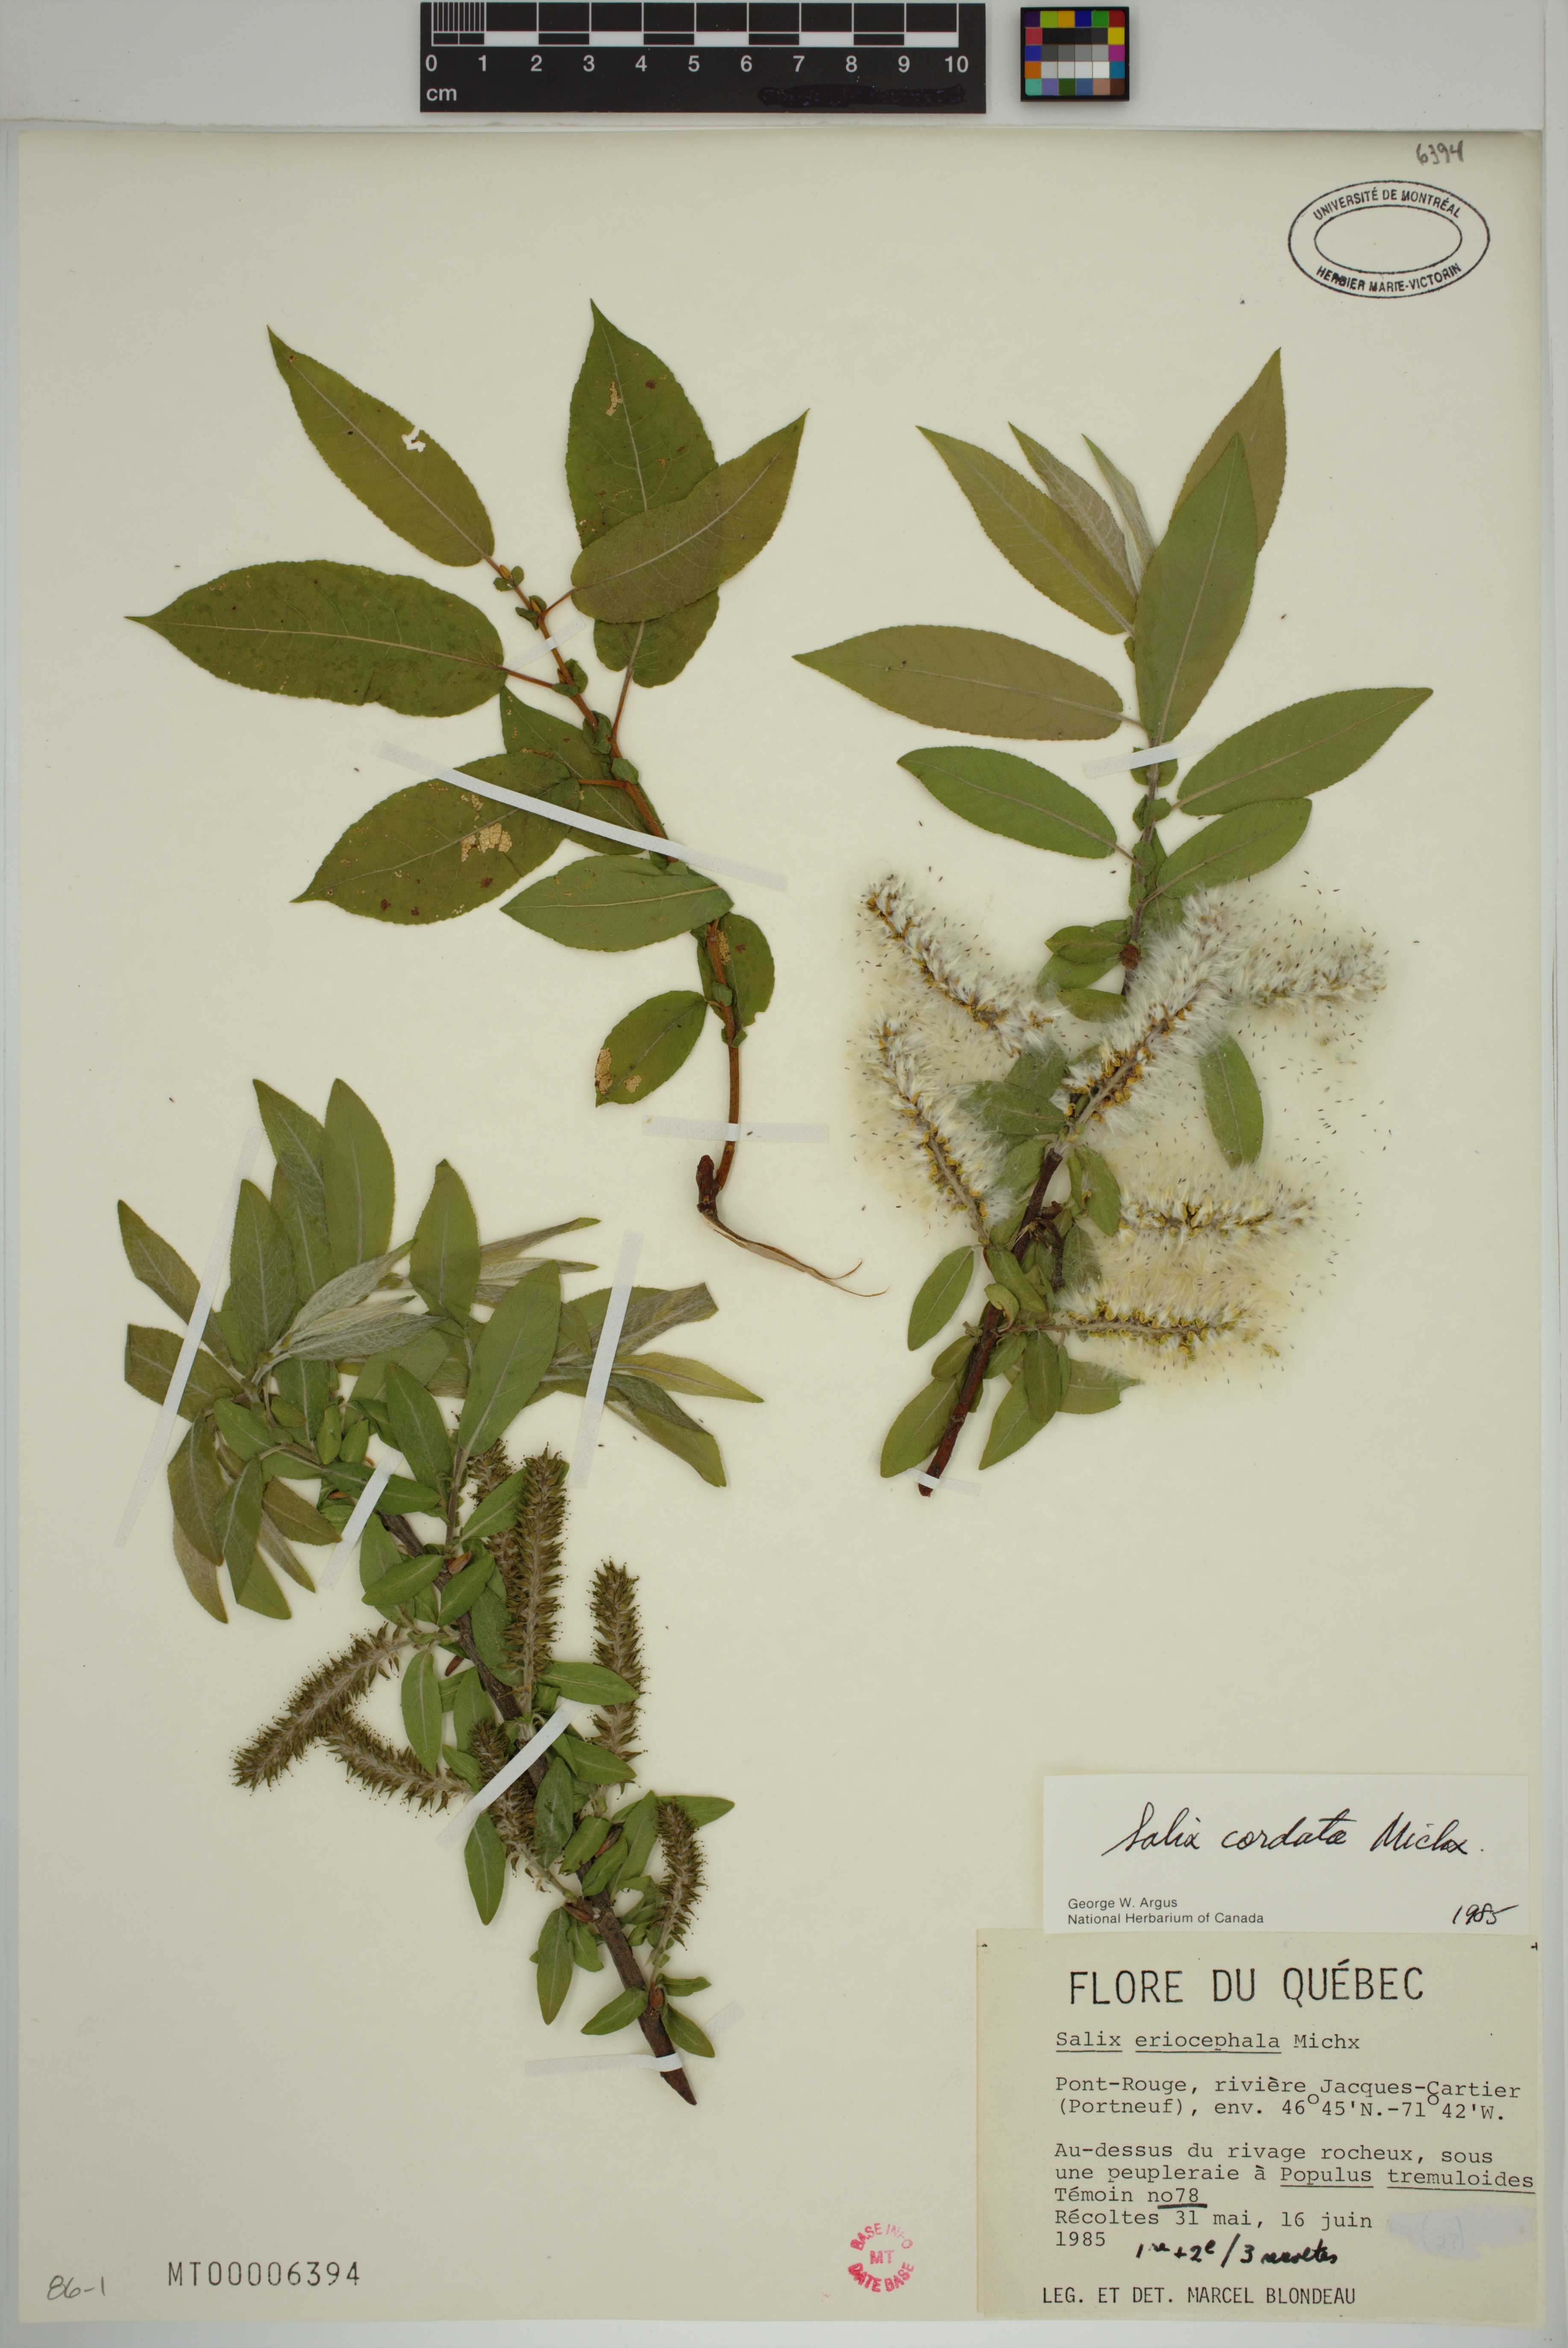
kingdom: Plantae
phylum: Tracheophyta
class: Magnoliopsida
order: Malpighiales
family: Salicaceae
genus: Salix
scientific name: Salix cordata
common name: Heart-leaf willow
